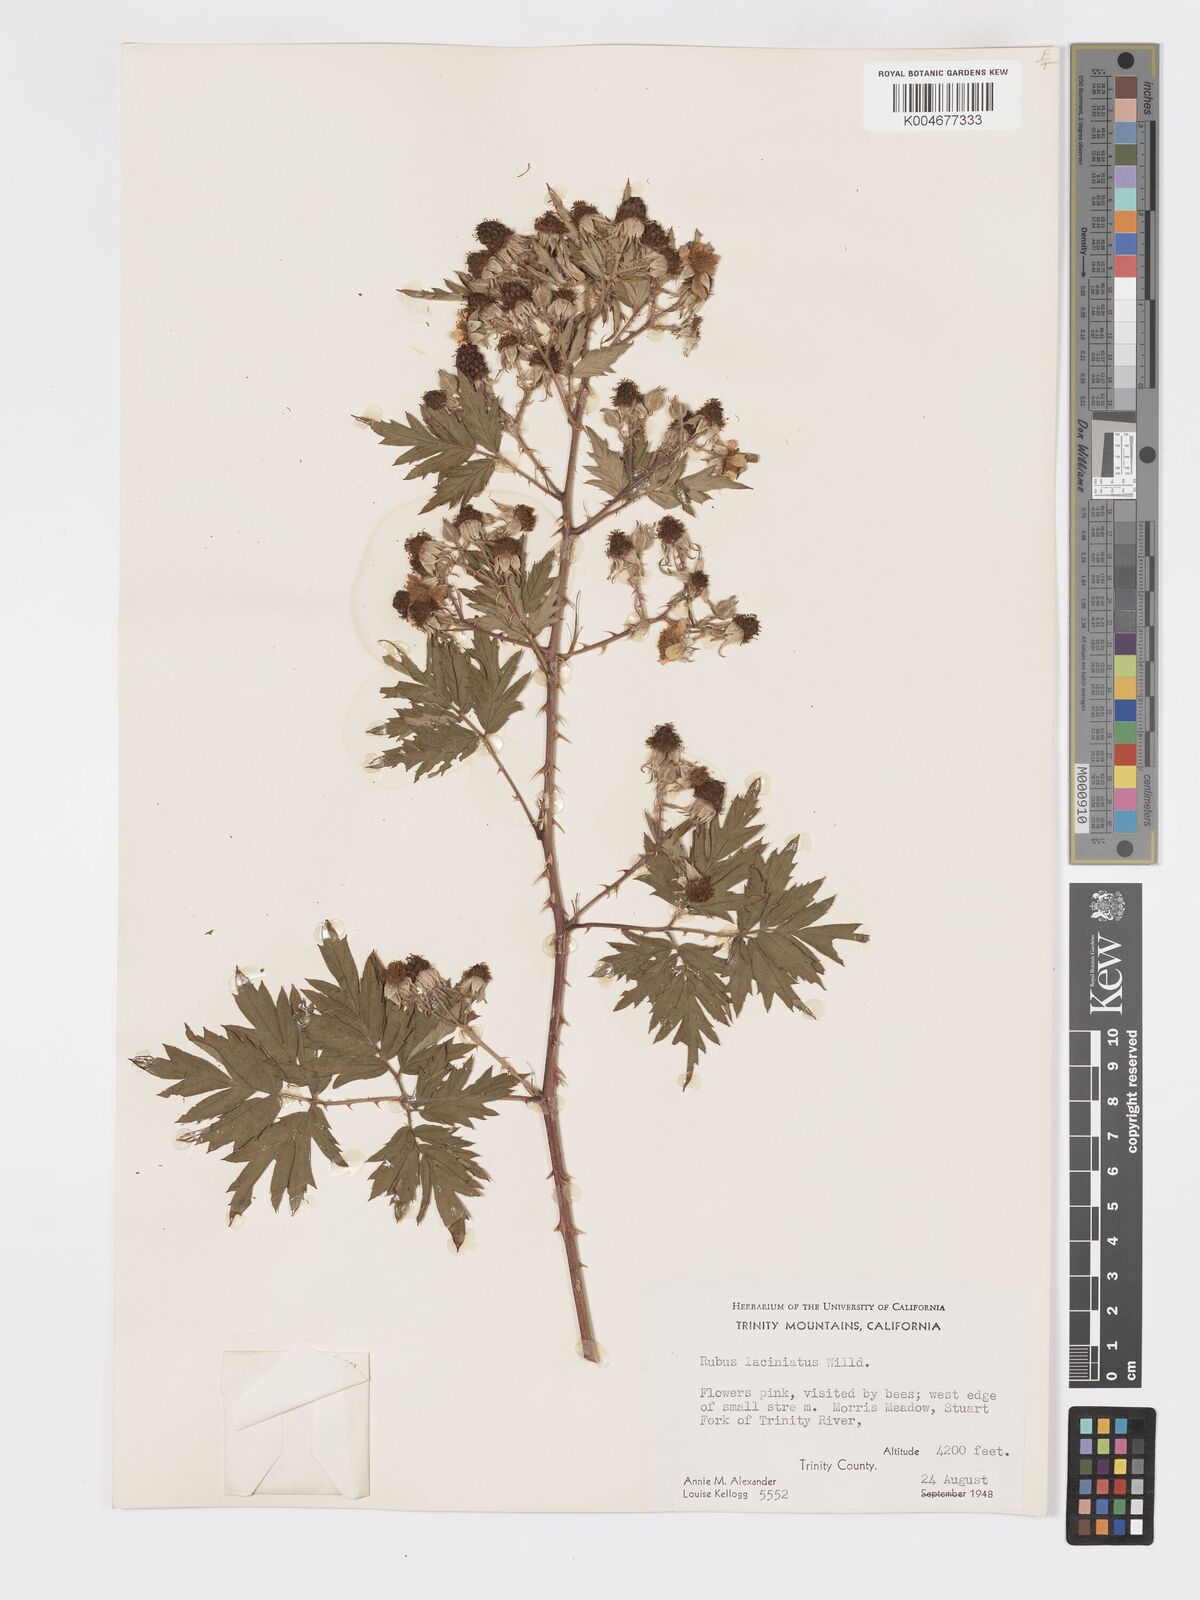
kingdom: Plantae
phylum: Tracheophyta
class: Magnoliopsida
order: Rosales
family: Rosaceae
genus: Rubus
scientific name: Rubus laciniatus
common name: Evergreen blackberry
